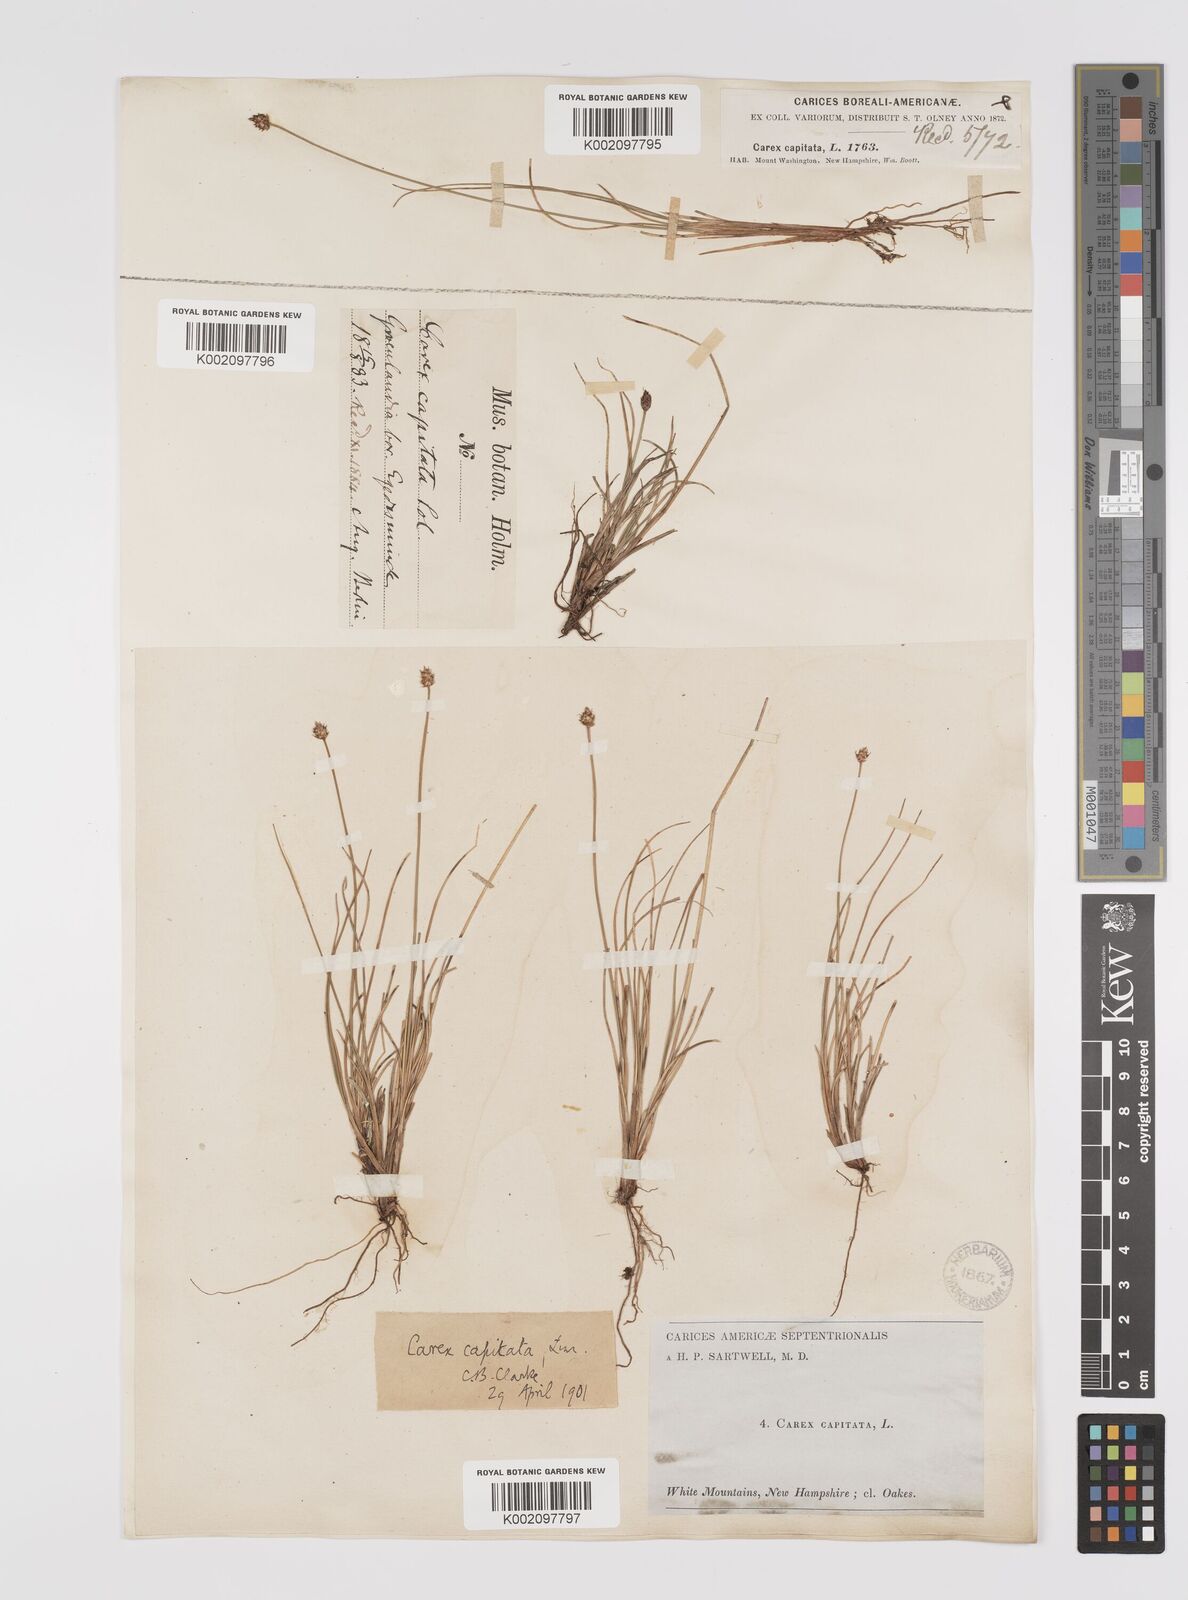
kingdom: Plantae
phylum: Tracheophyta
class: Liliopsida
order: Poales
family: Cyperaceae
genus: Carex
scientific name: Carex capitata
